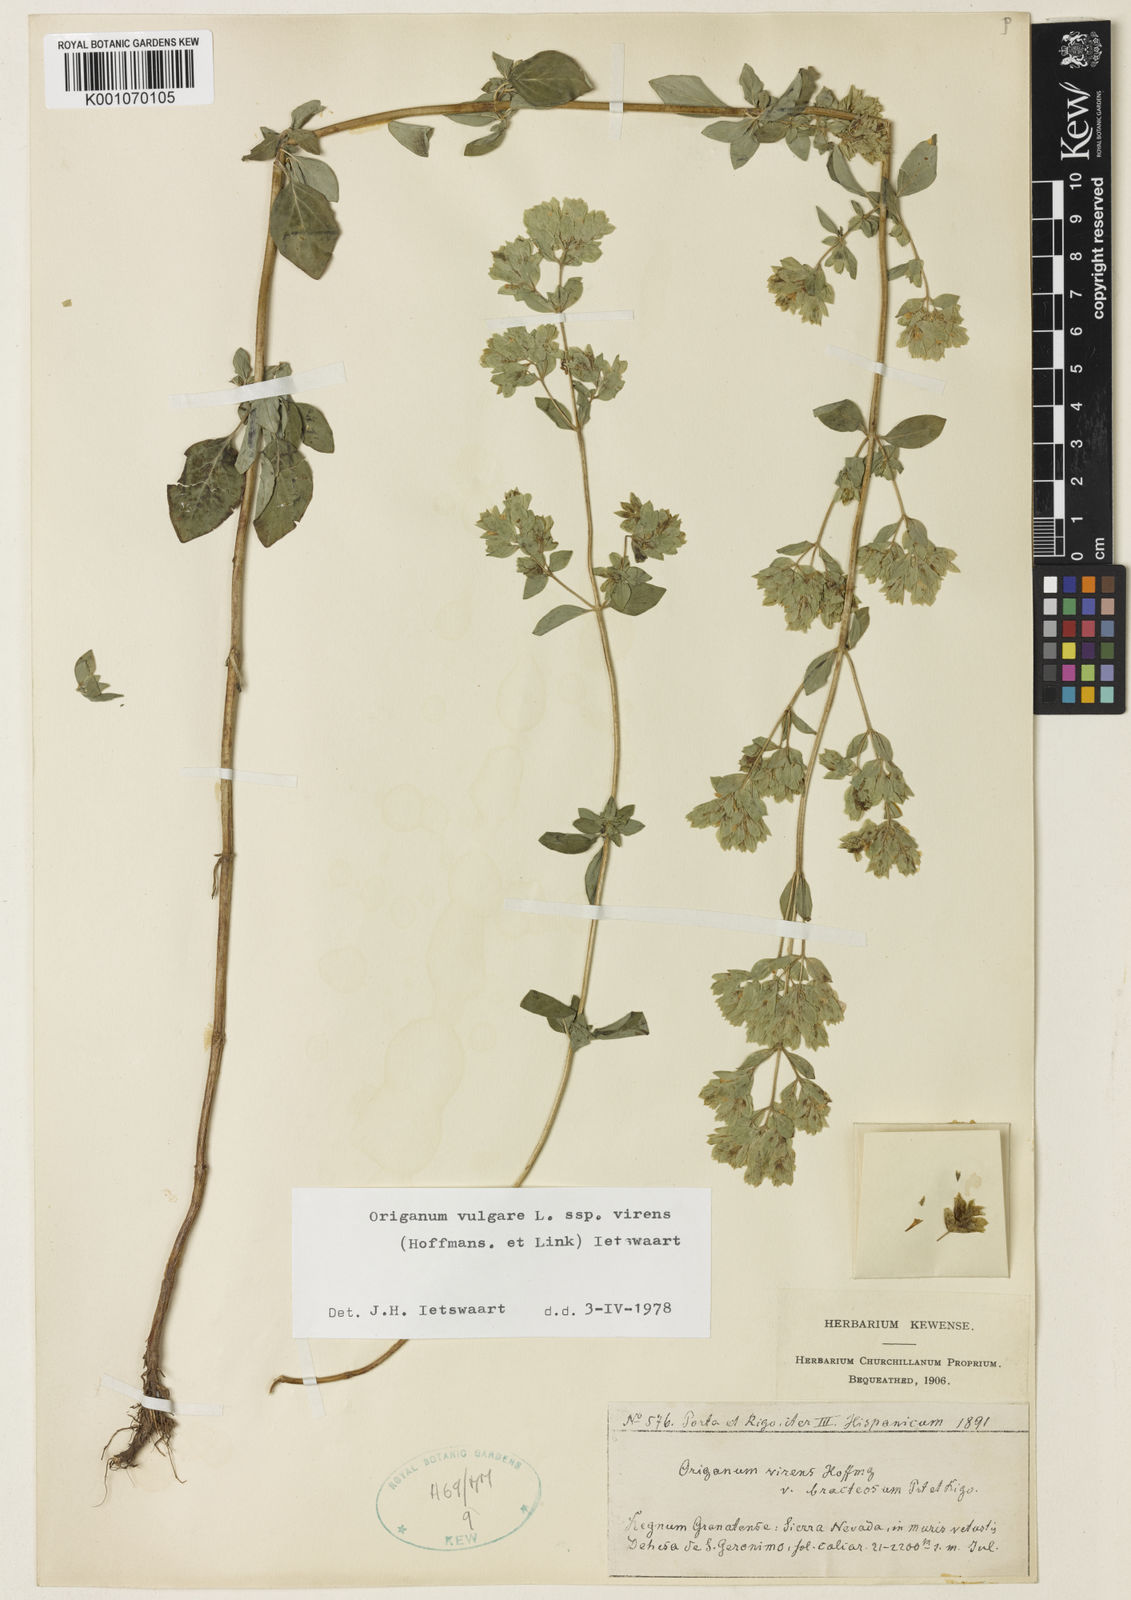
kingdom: Plantae
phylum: Tracheophyta
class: Magnoliopsida
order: Lamiales
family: Lamiaceae
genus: Origanum
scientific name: Origanum vulgare
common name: Wild marjoram
